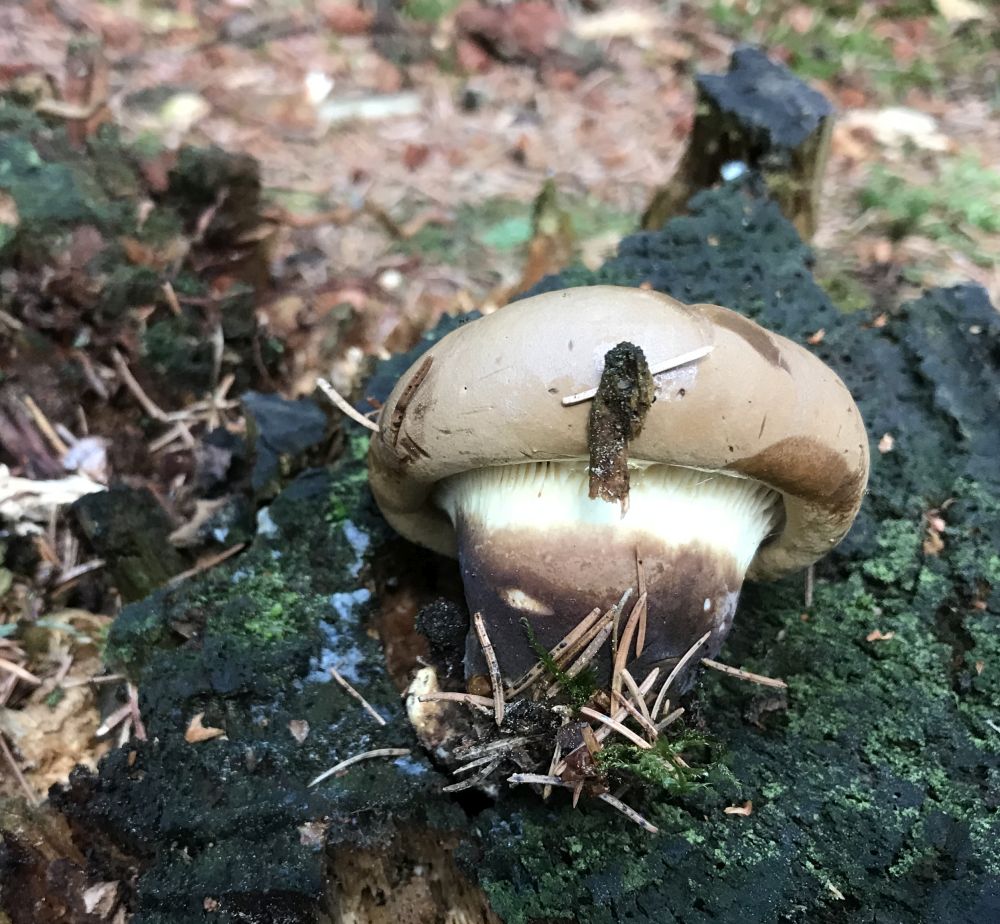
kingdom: Fungi
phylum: Basidiomycota
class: Agaricomycetes
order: Boletales
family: Tapinellaceae
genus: Tapinella
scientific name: Tapinella atrotomentosa
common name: sortfiltet viftesvamp
